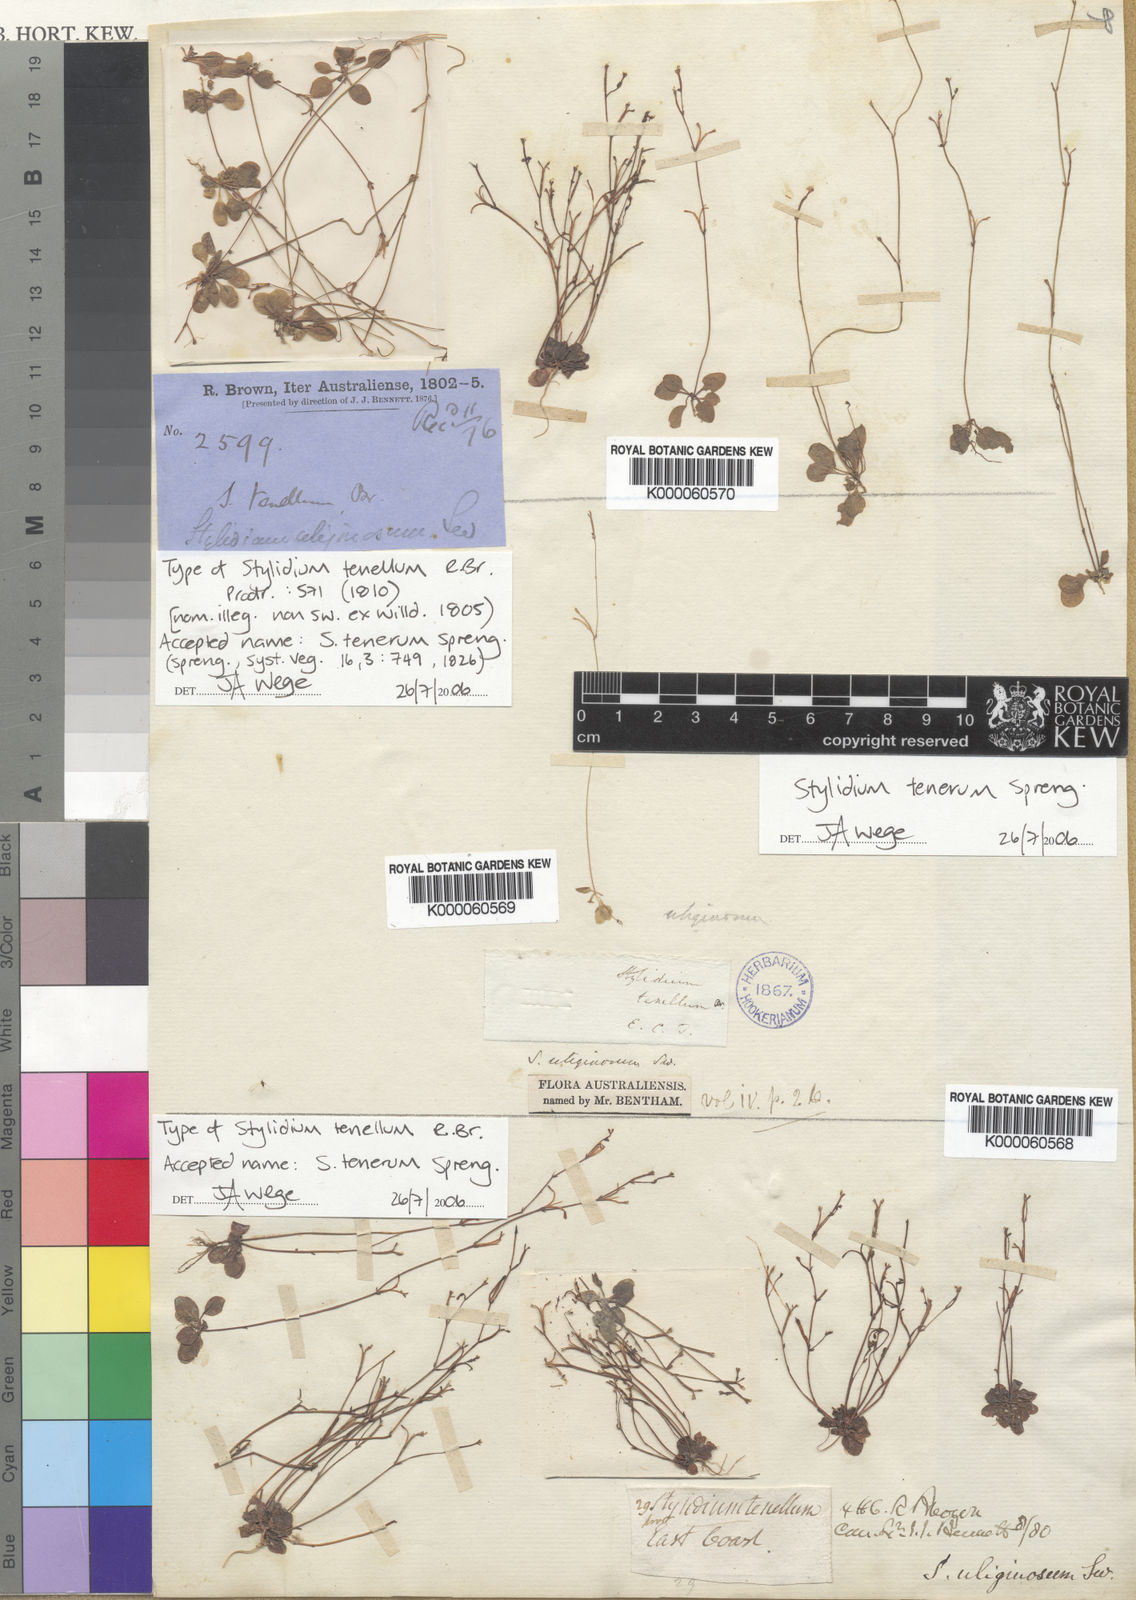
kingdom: Plantae
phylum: Tracheophyta
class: Magnoliopsida
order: Asterales
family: Stylidiaceae
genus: Stylidium
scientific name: Stylidium tenerum
